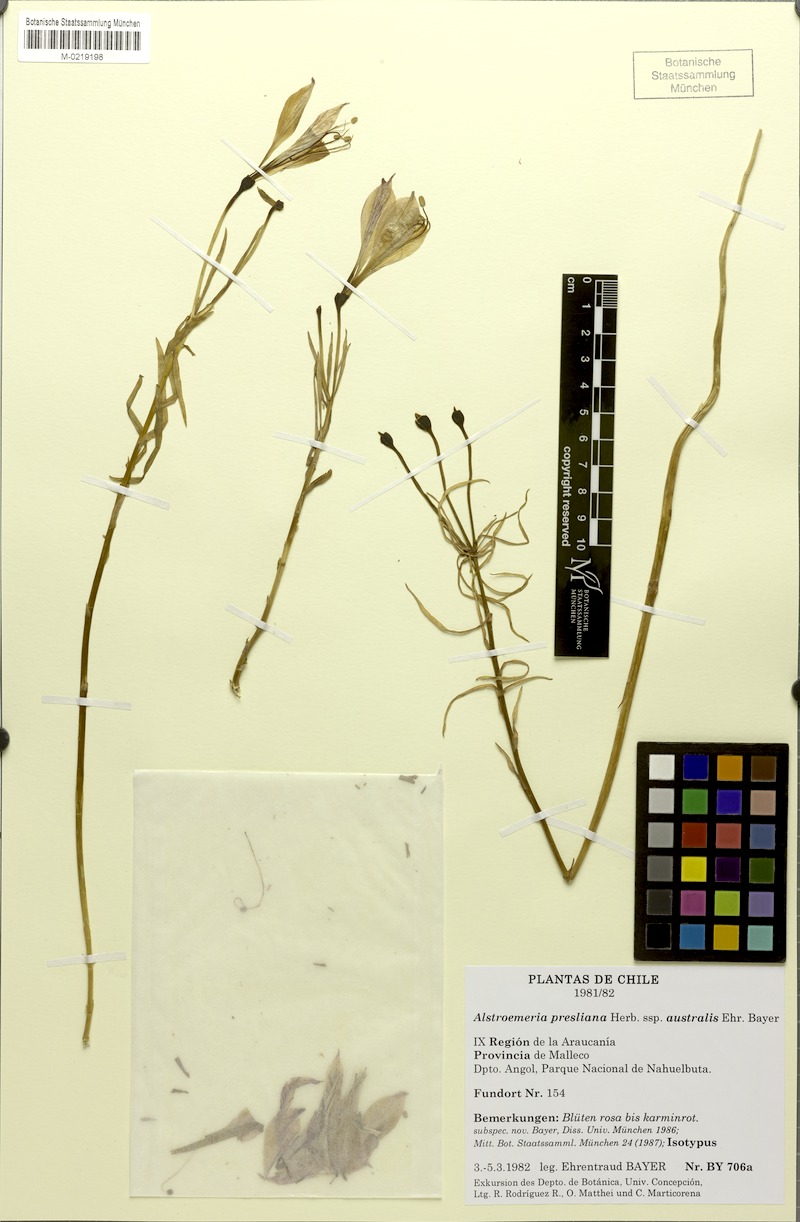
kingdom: Plantae
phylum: Tracheophyta
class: Liliopsida
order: Liliales
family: Alstroemeriaceae
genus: Alstroemeria
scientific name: Alstroemeria presliana
